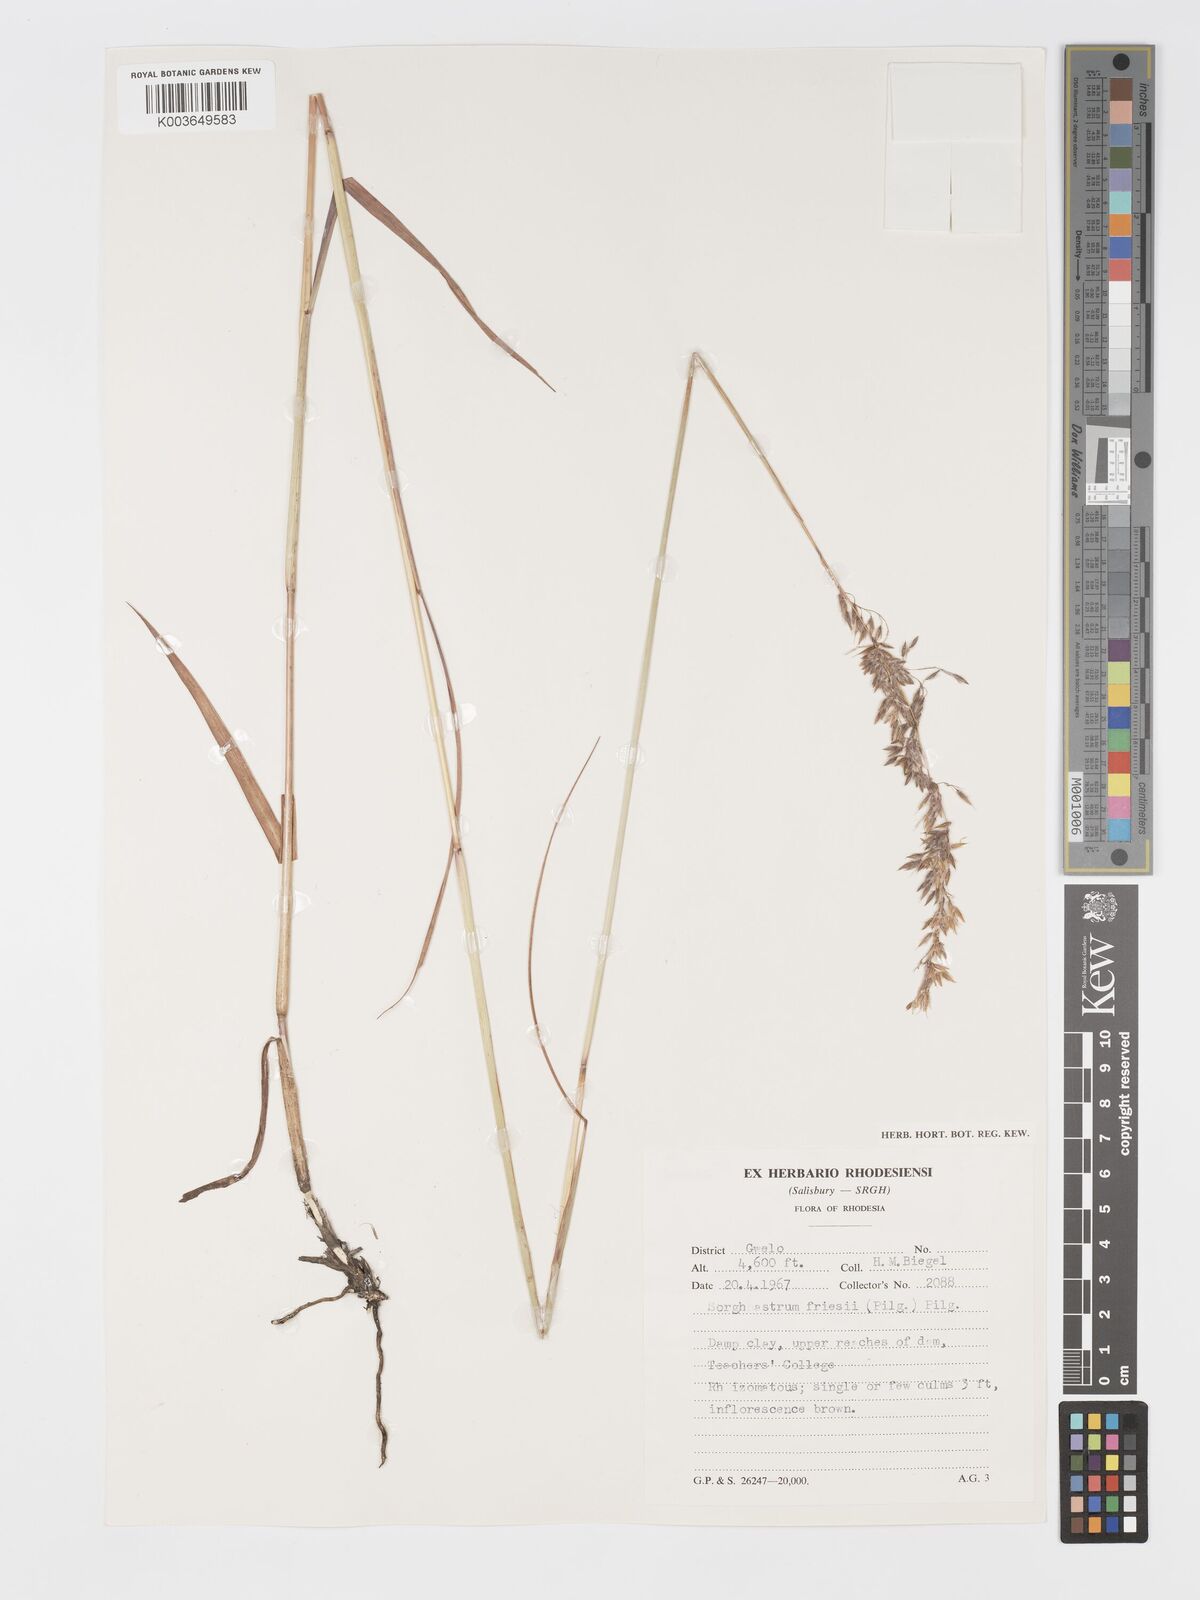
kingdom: Plantae
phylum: Tracheophyta
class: Liliopsida
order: Poales
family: Poaceae
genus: Sorghastrum
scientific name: Sorghastrum nudipes
